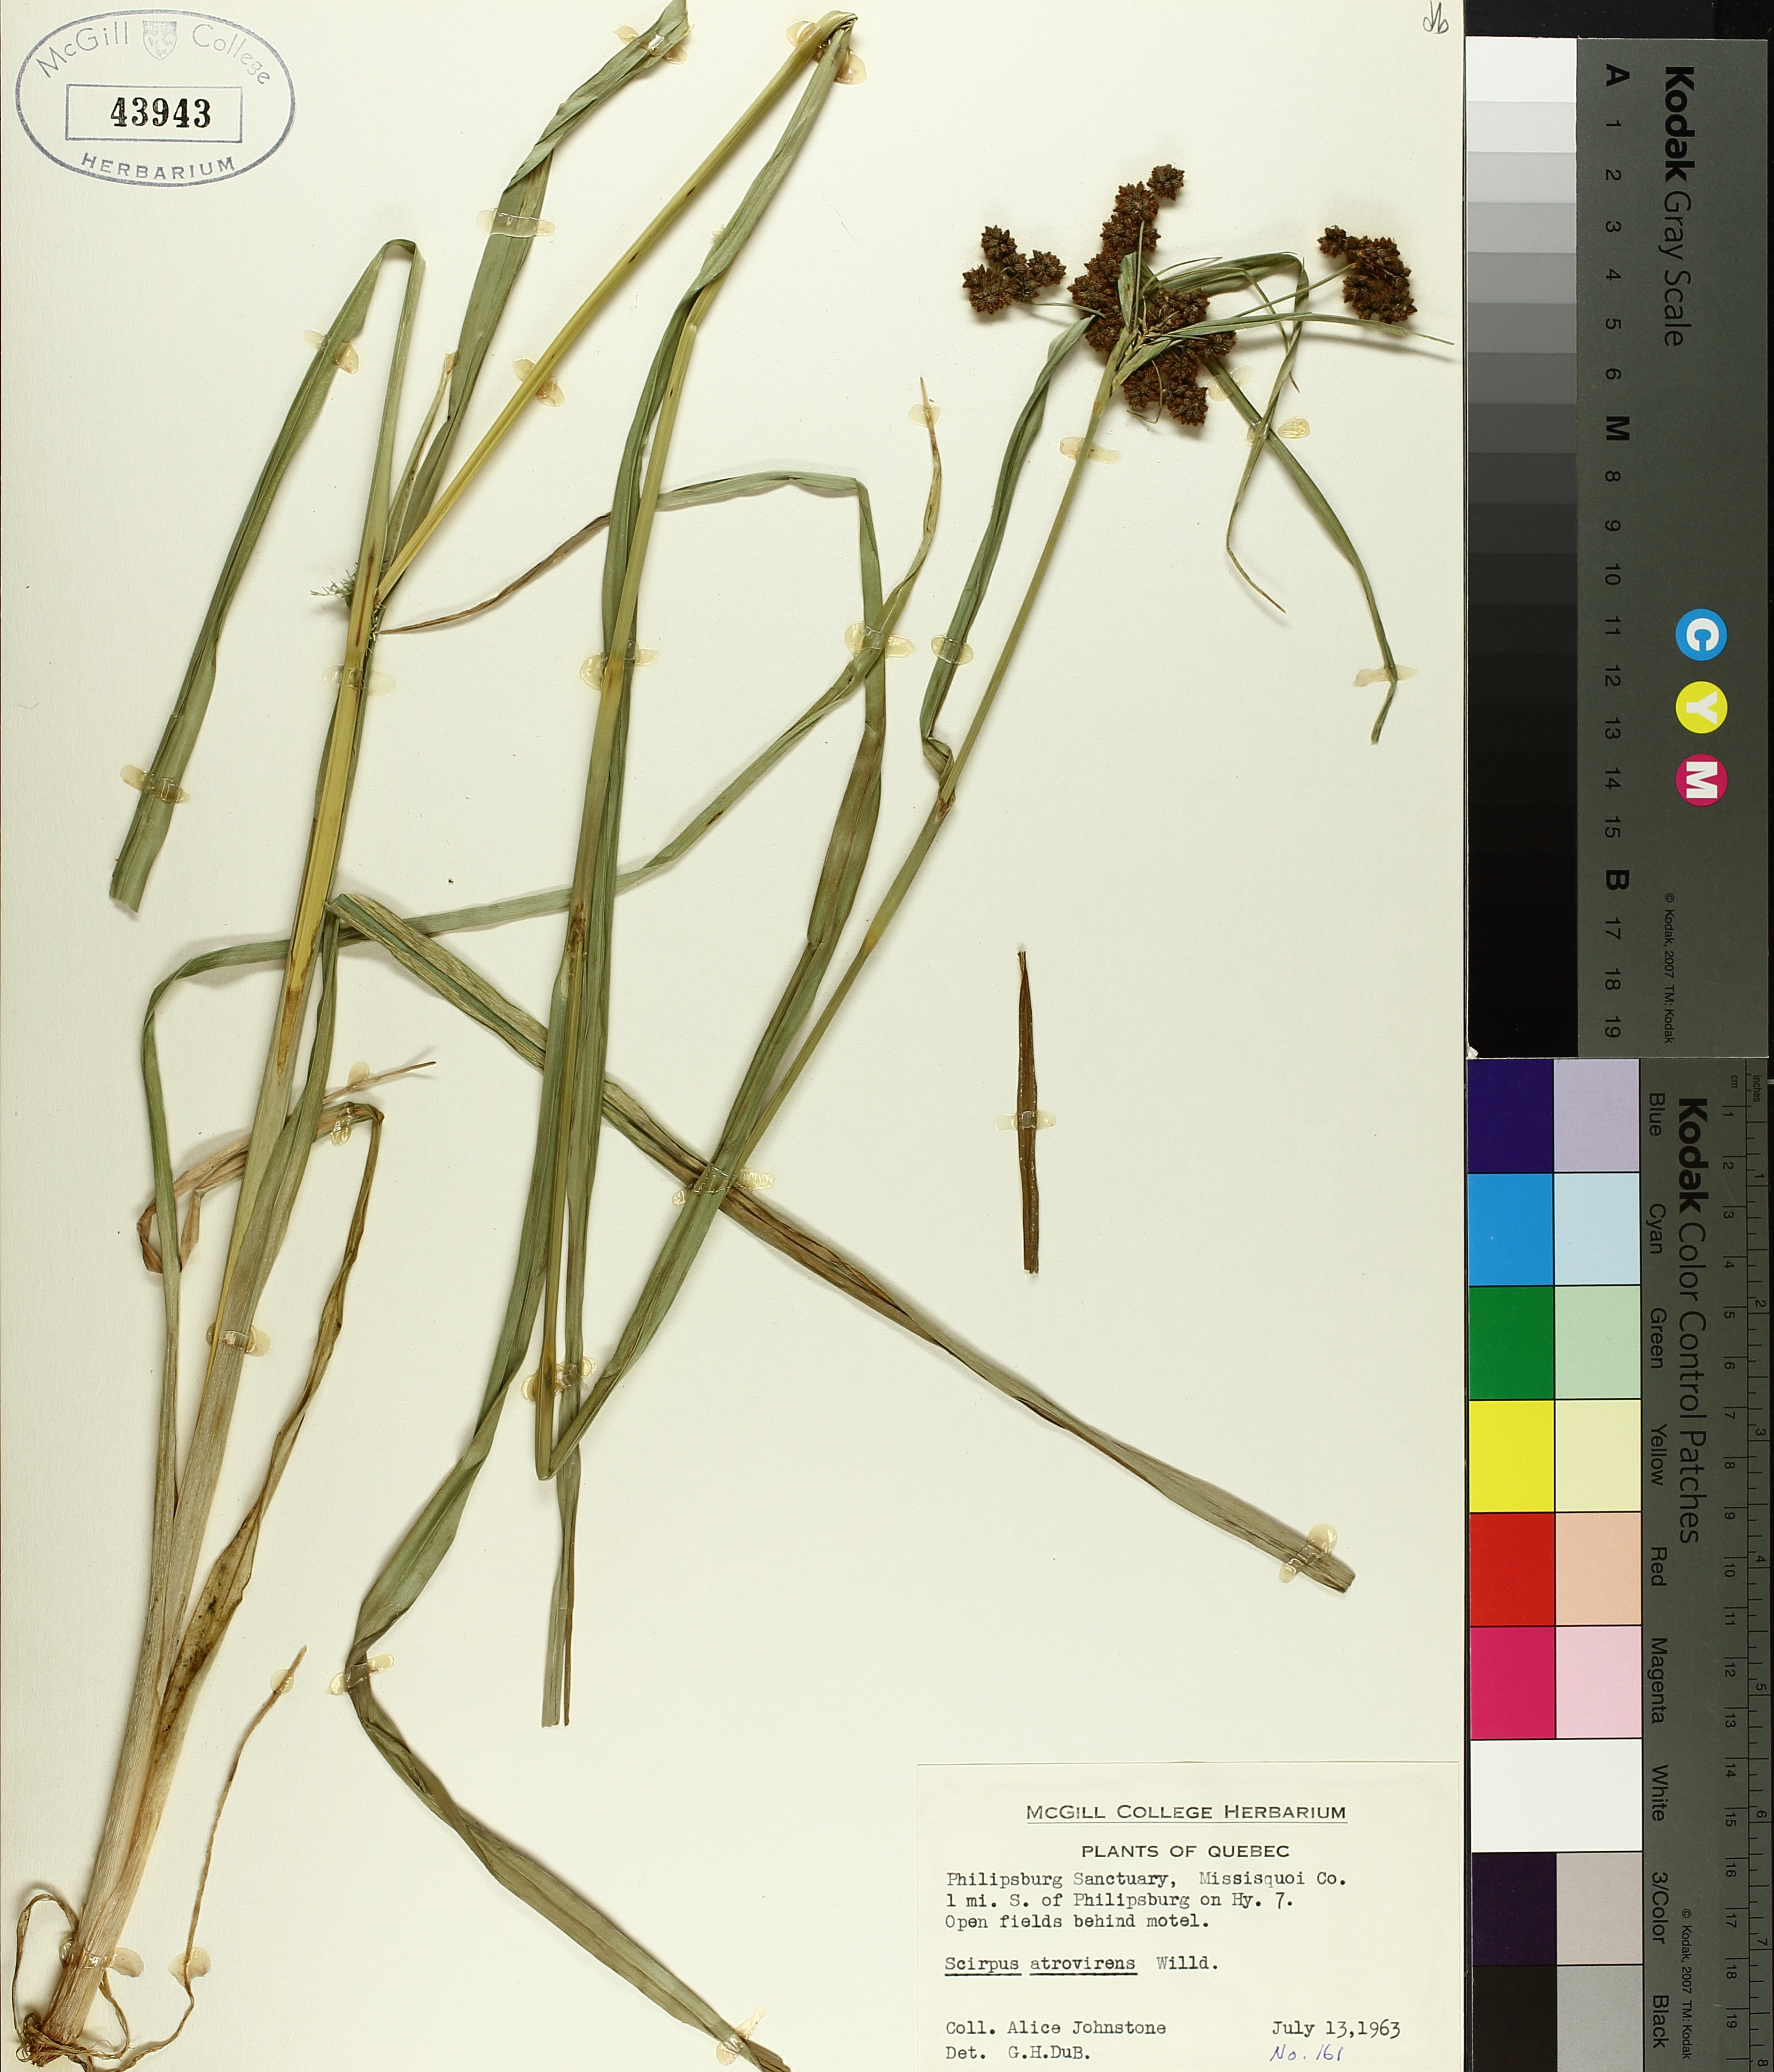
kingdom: Plantae
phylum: Tracheophyta
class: Liliopsida
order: Poales
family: Cyperaceae
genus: Scirpus
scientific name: Scirpus atrovirens
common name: Black bulrush
